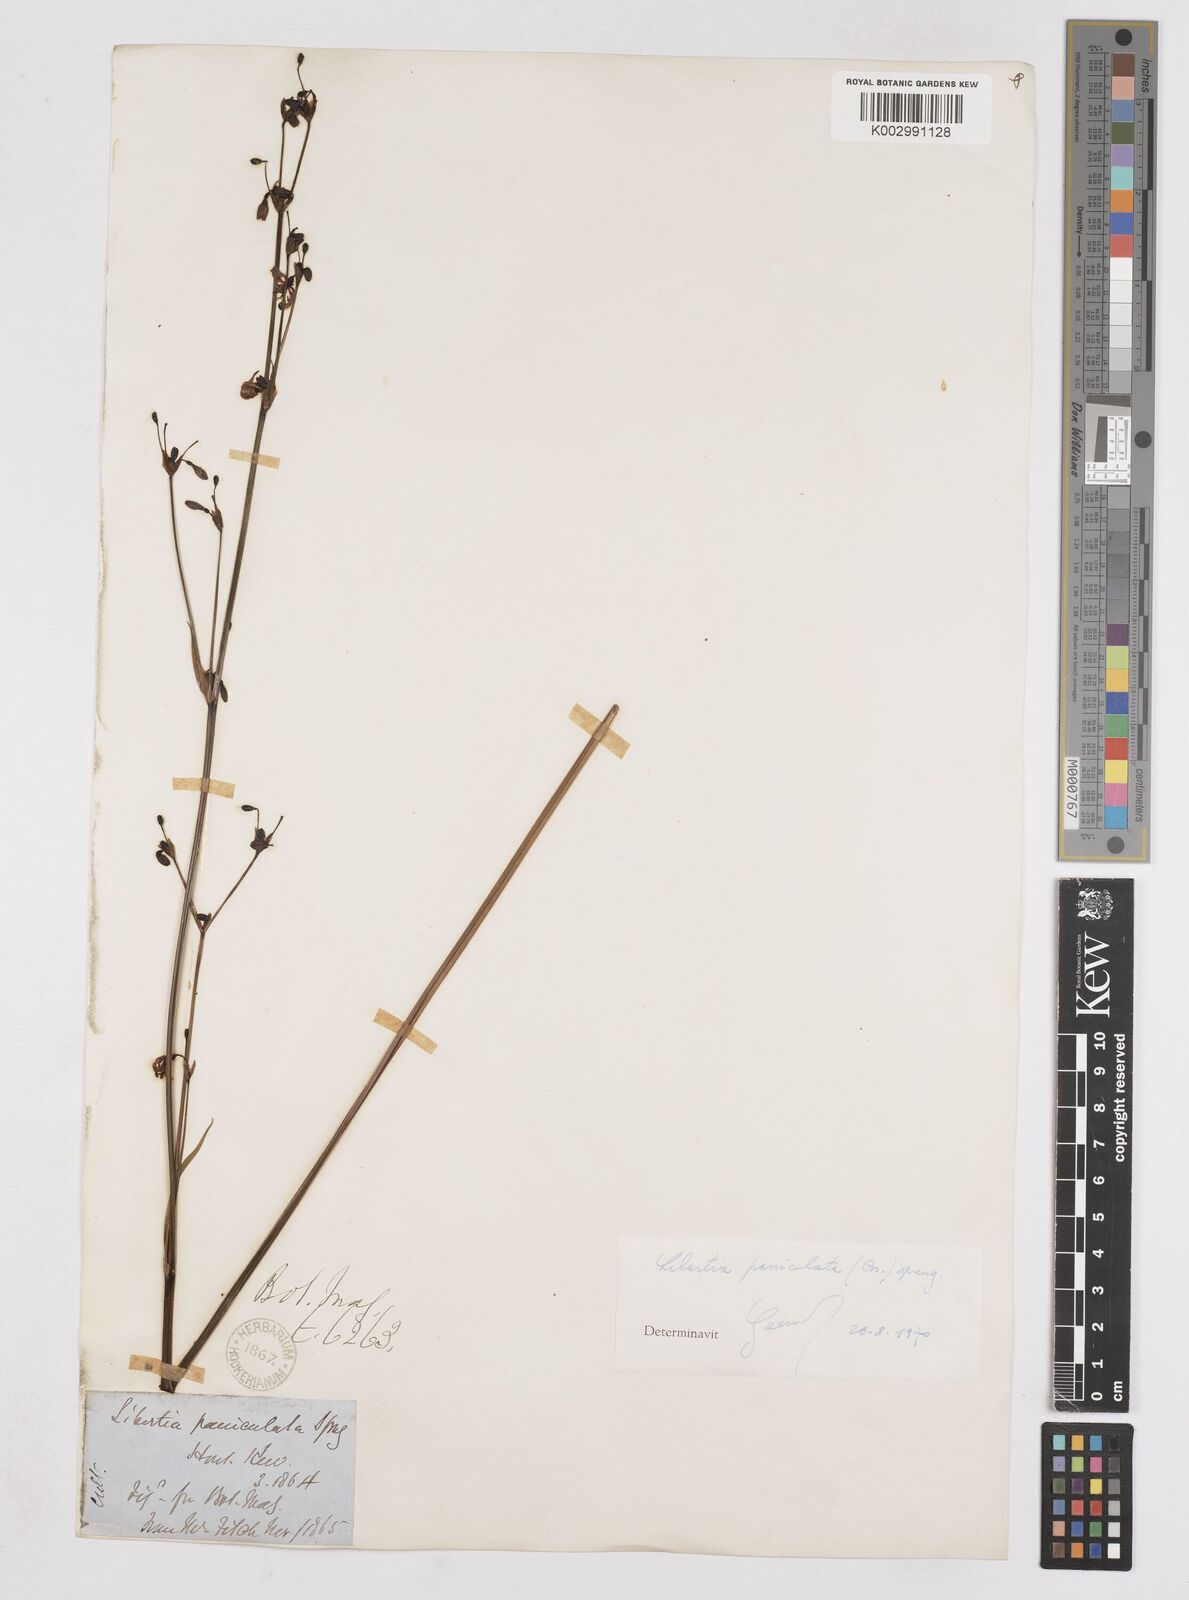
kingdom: Plantae
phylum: Tracheophyta
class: Liliopsida
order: Asparagales
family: Iridaceae
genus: Libertia
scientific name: Libertia paniculata
